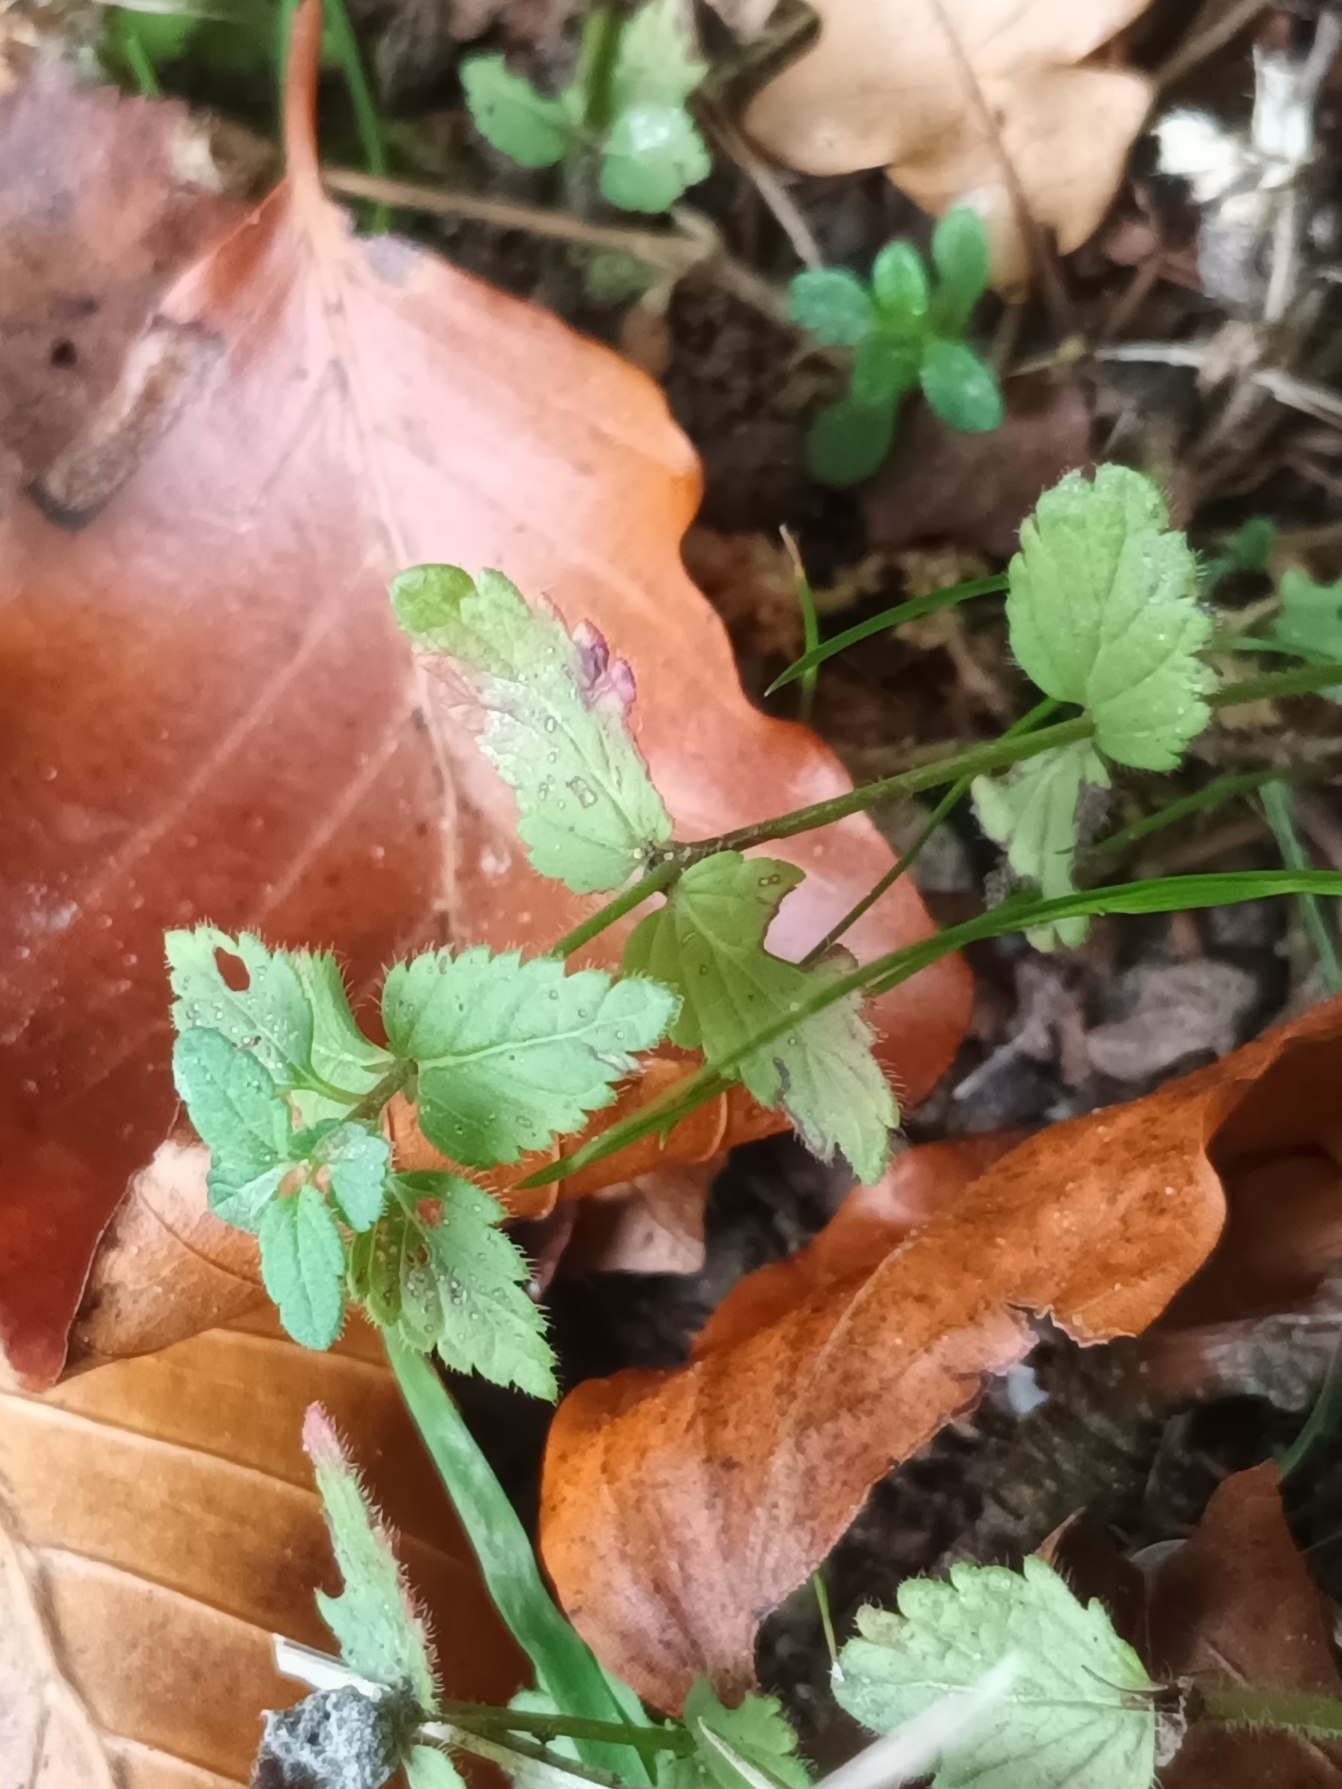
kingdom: Plantae
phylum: Tracheophyta
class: Magnoliopsida
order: Lamiales
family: Plantaginaceae
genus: Veronica
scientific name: Veronica chamaedrys
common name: Tveskægget ærenpris
